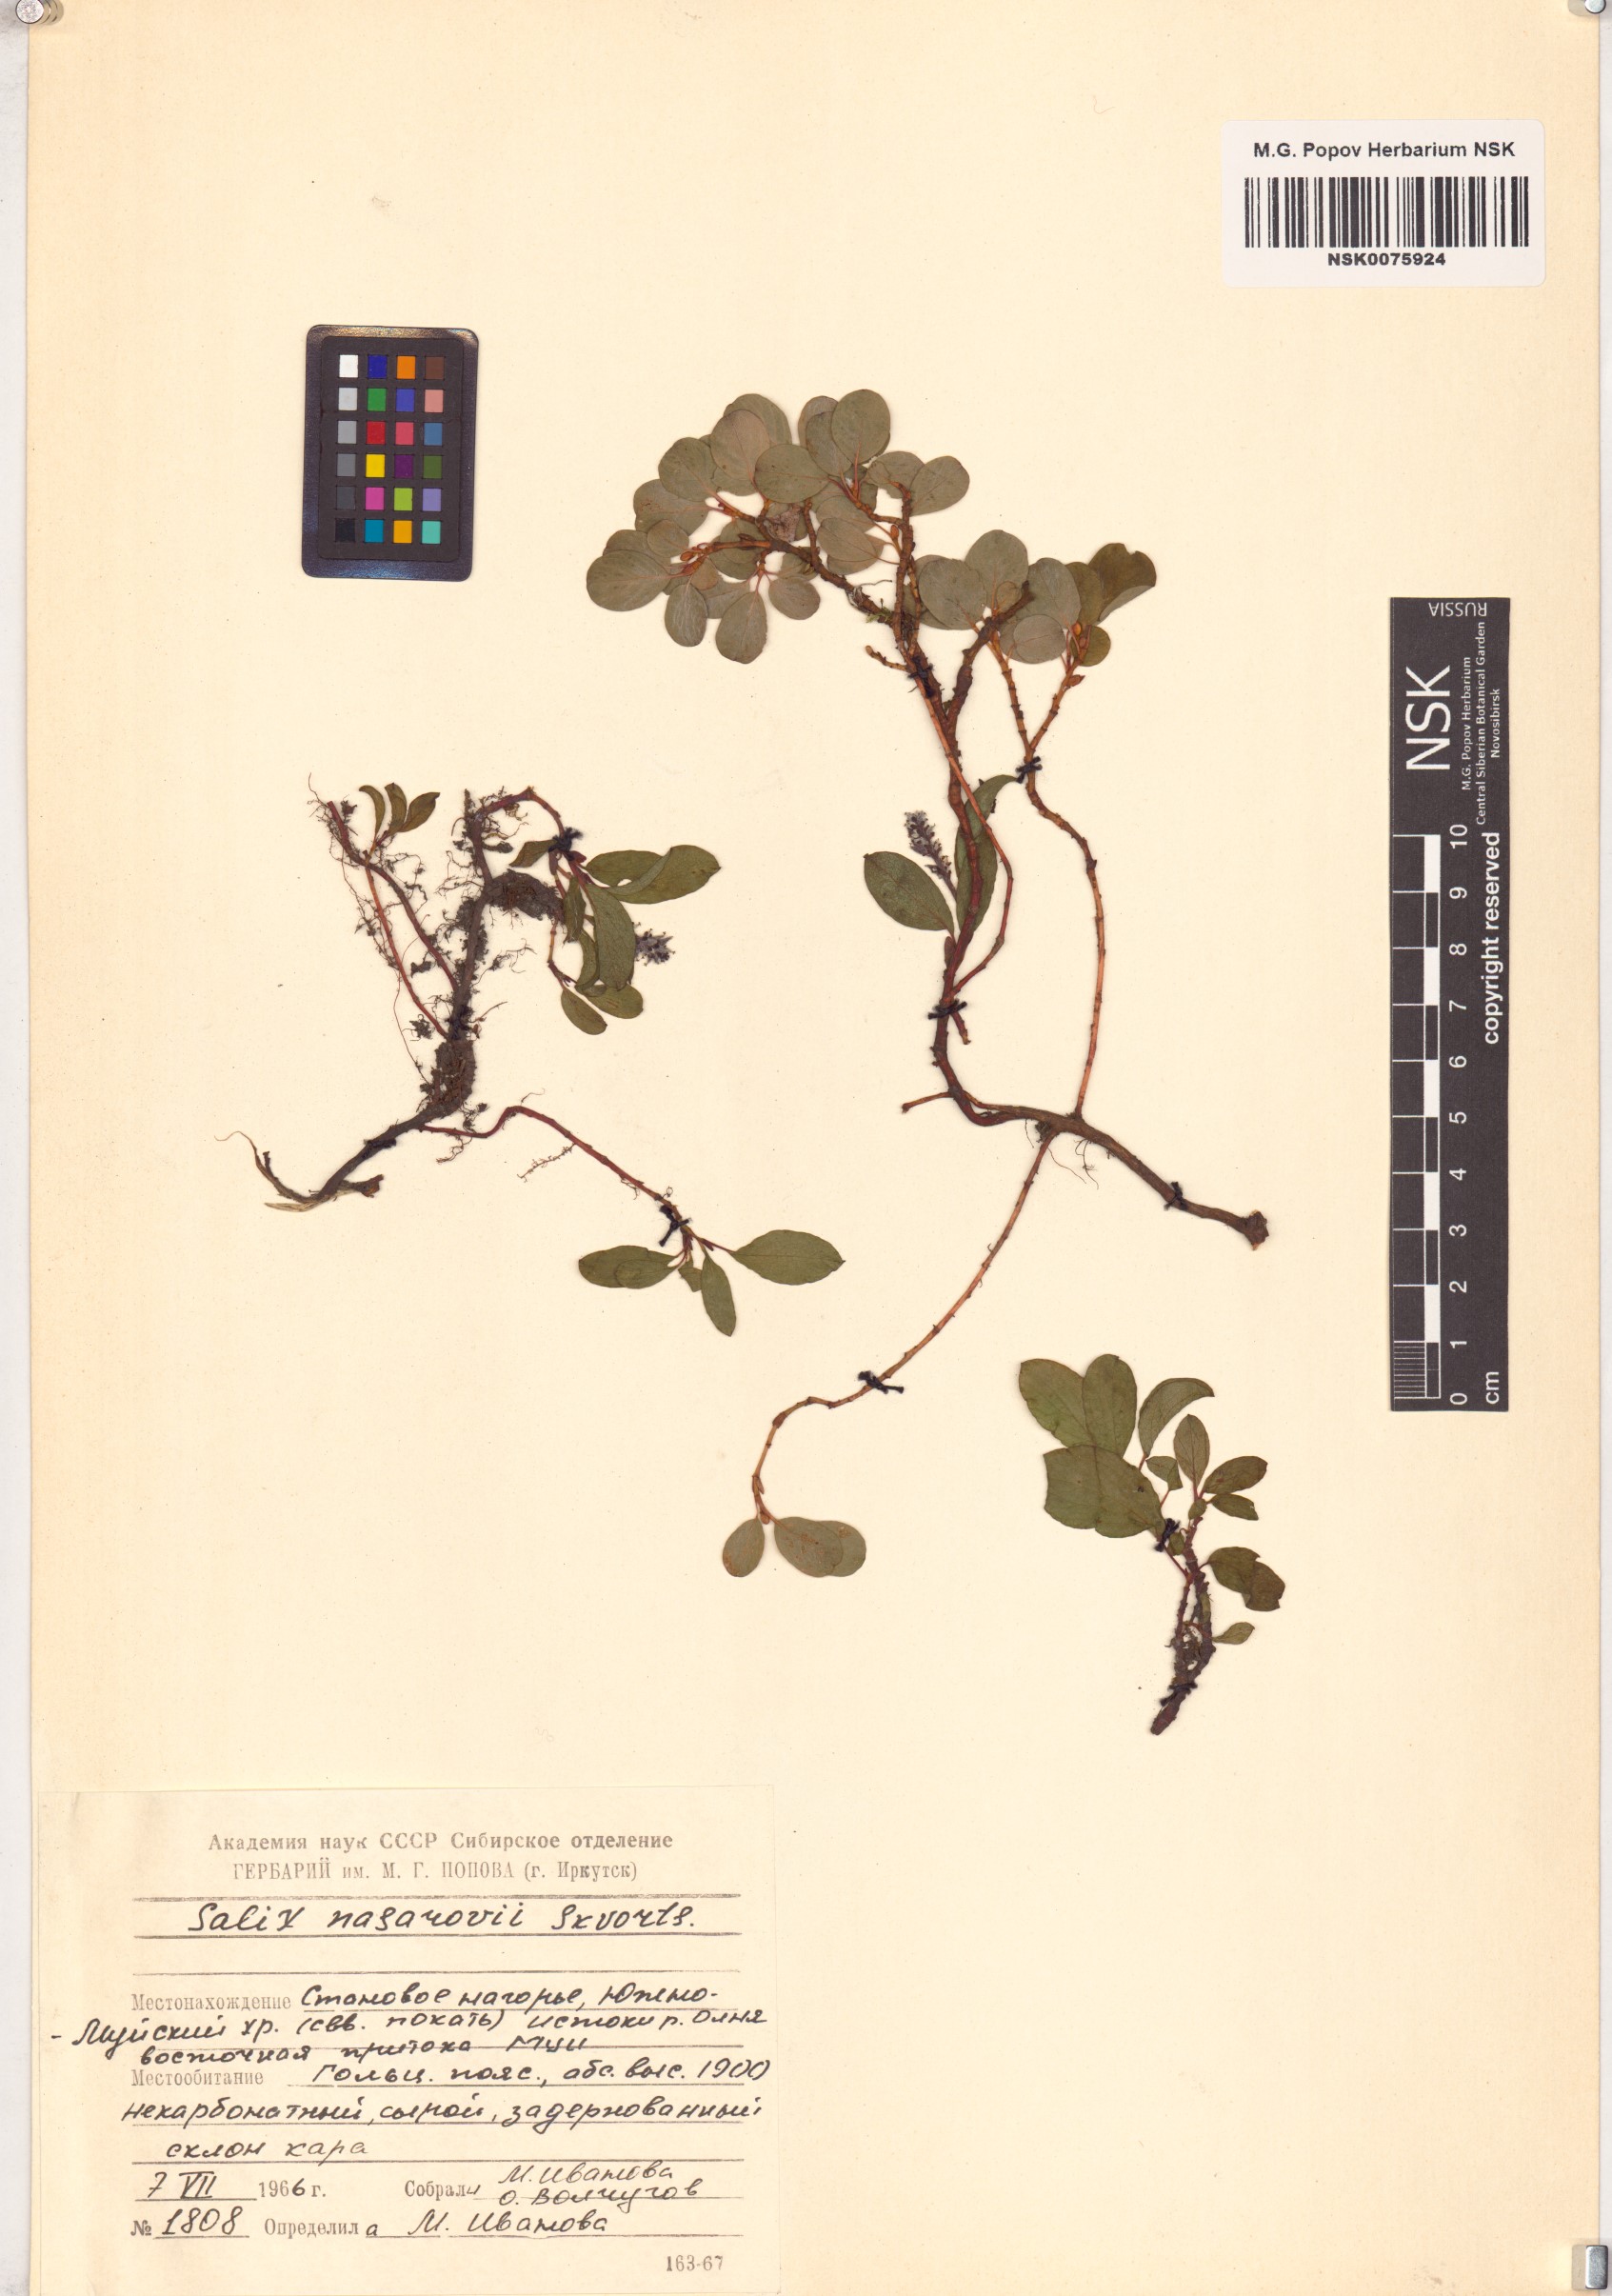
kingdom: Plantae
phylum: Tracheophyta
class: Magnoliopsida
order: Malpighiales
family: Salicaceae
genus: Salix
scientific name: Salix nasarovii
